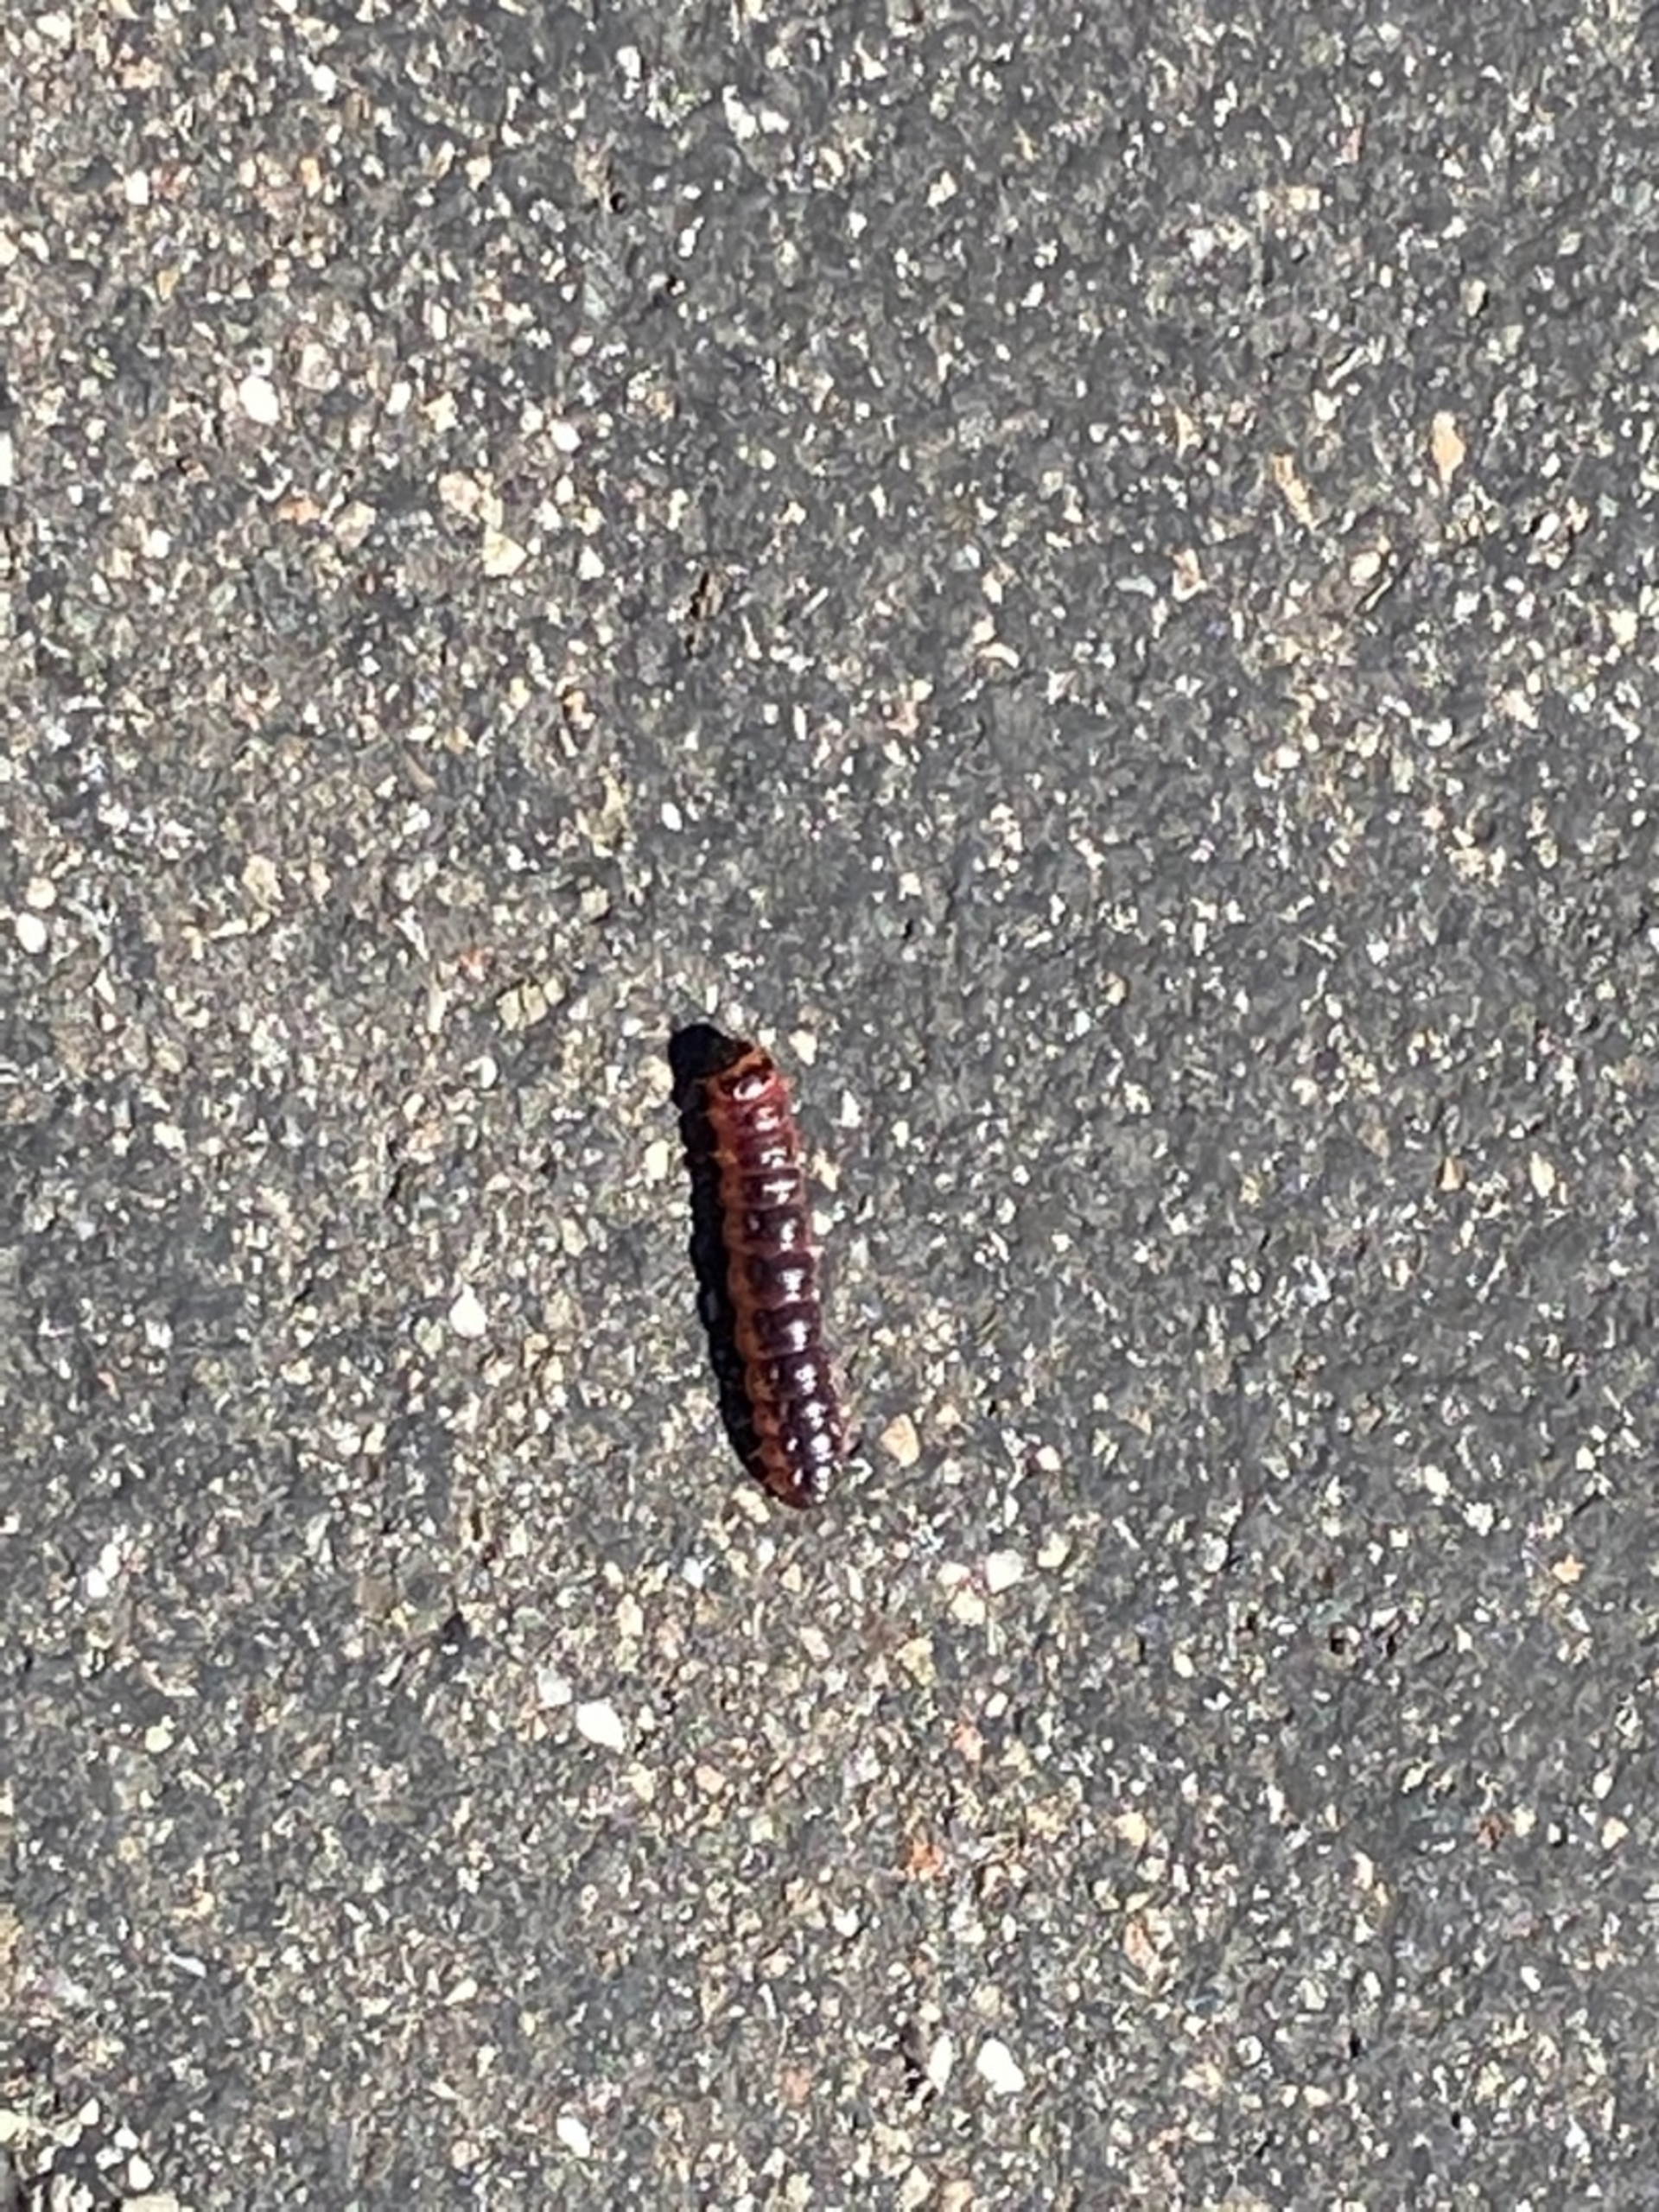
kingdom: Animalia
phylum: Arthropoda
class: Insecta
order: Lepidoptera
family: Cossidae
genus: Cossus
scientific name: Cossus cossus
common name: Pileborer
